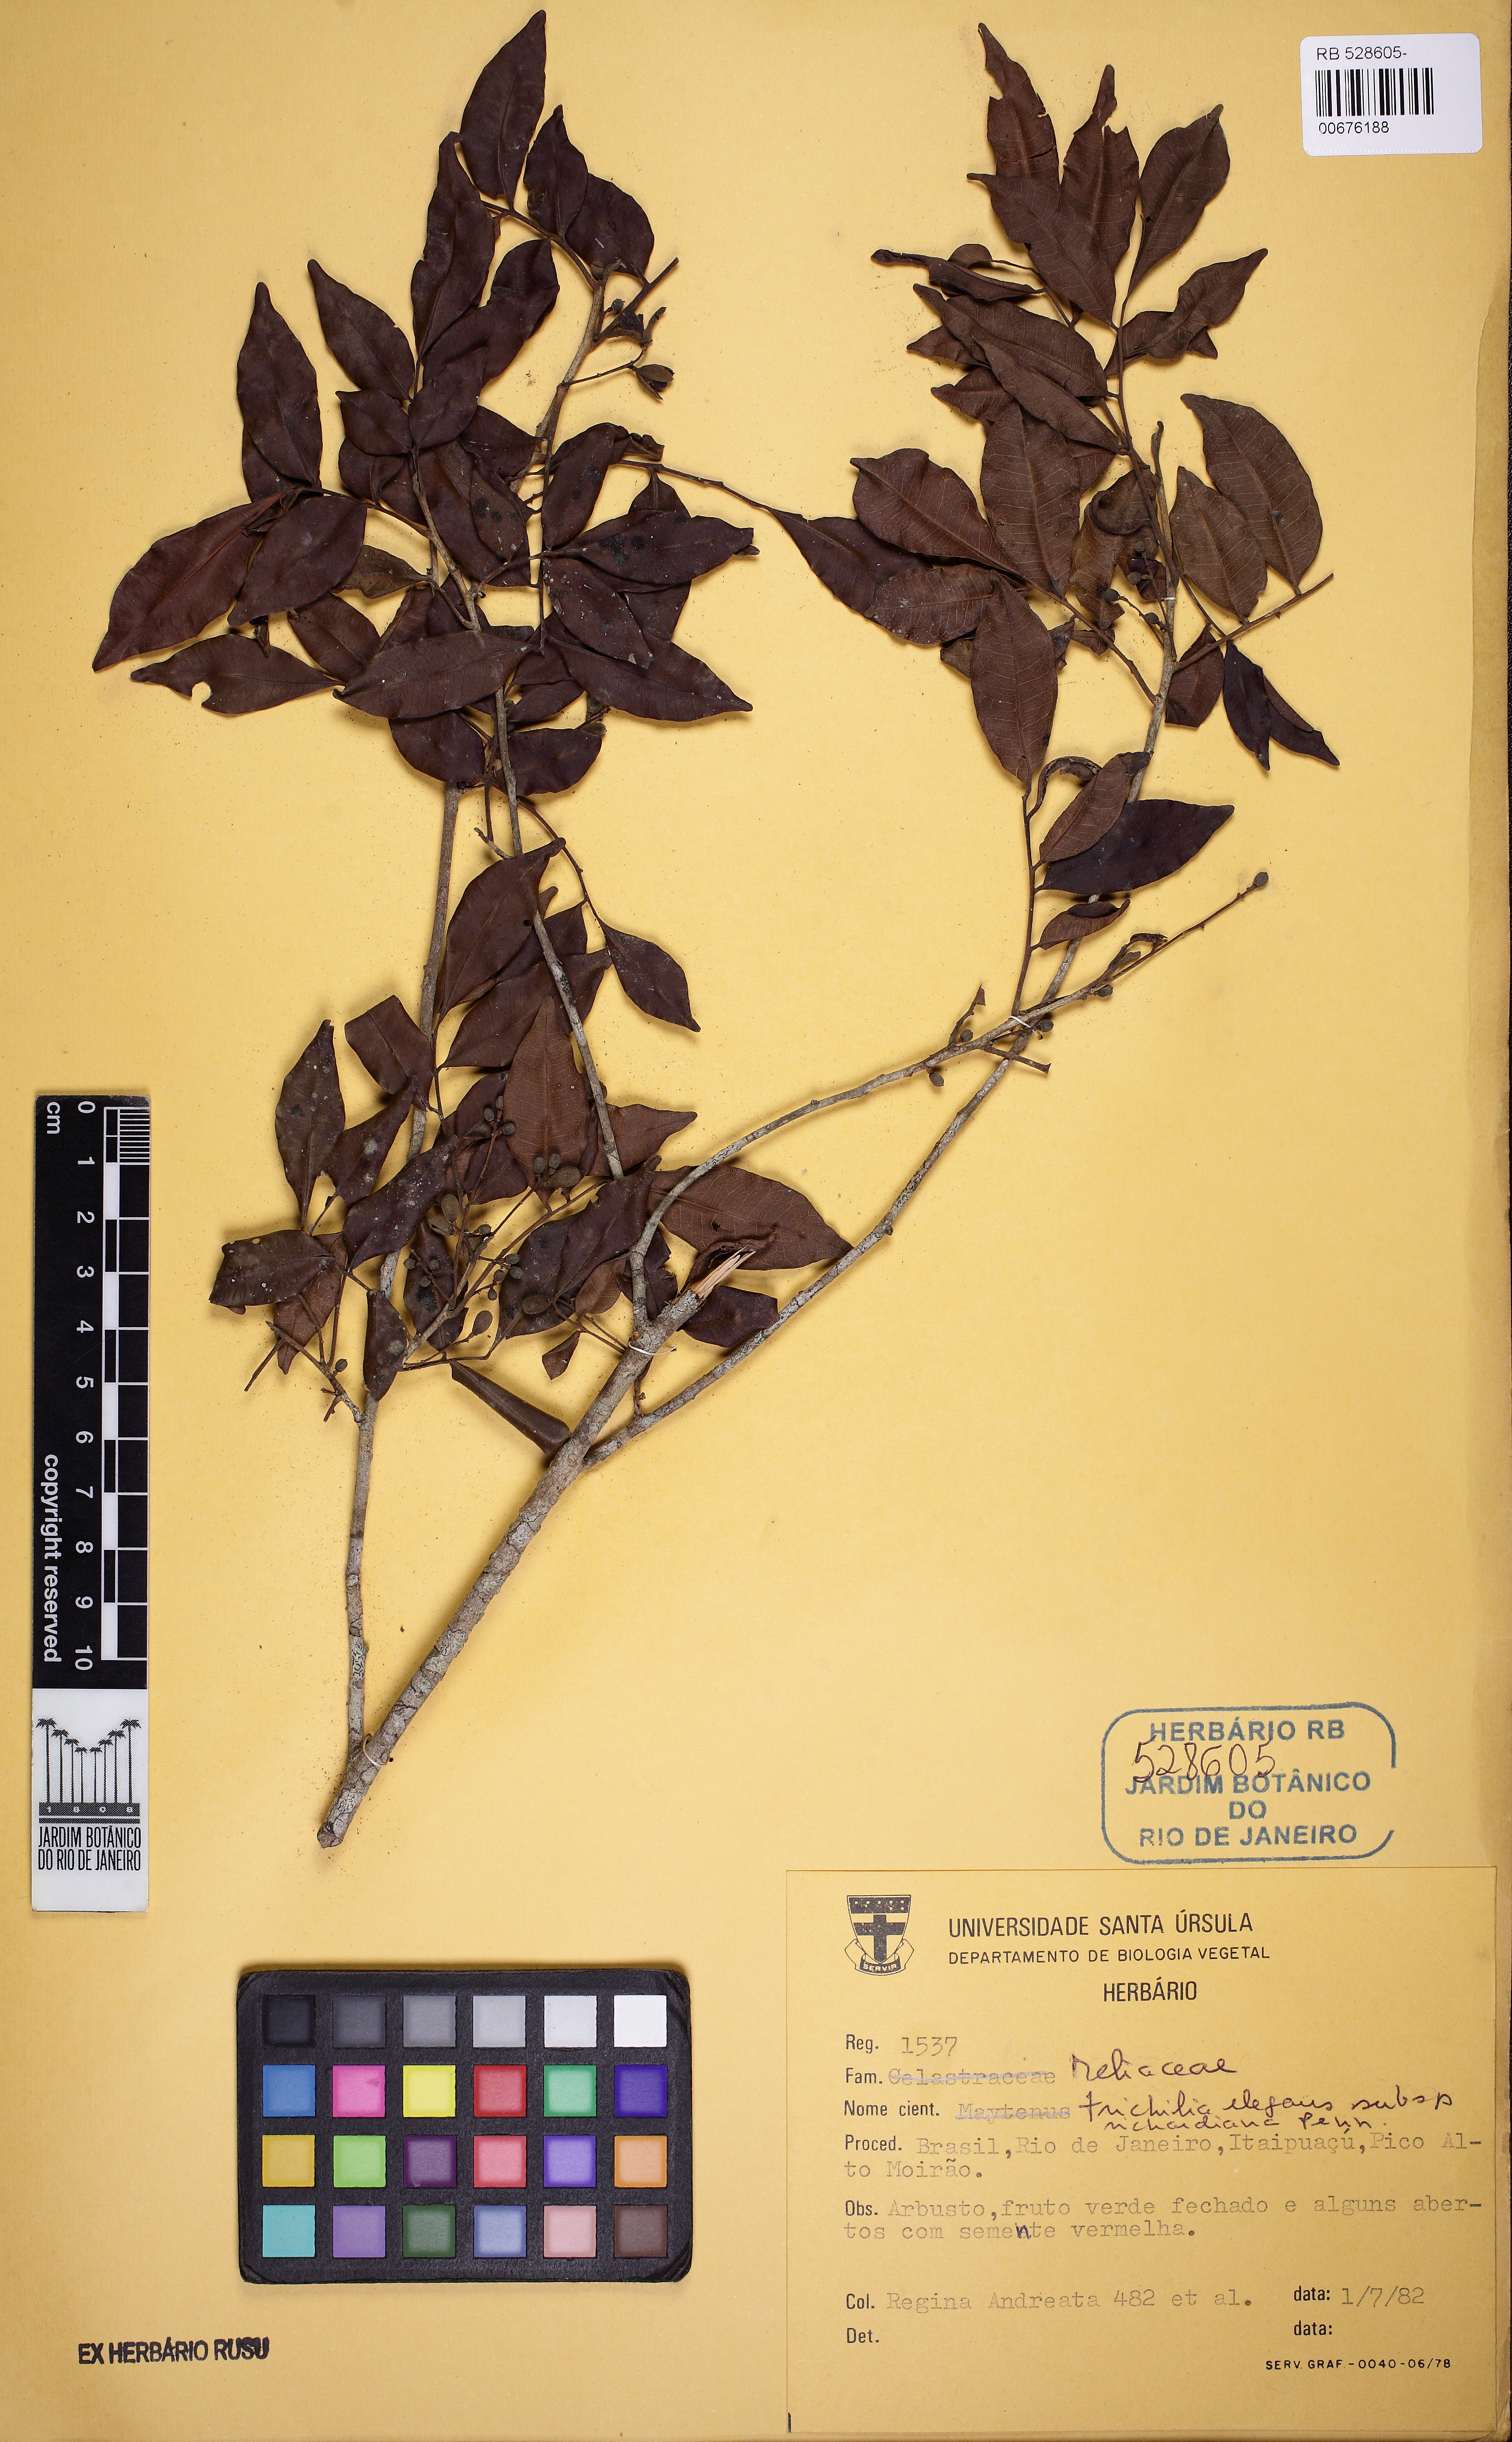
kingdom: Plantae
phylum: Tracheophyta
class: Magnoliopsida
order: Sapindales
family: Meliaceae
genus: Trichilia
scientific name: Trichilia elegans
